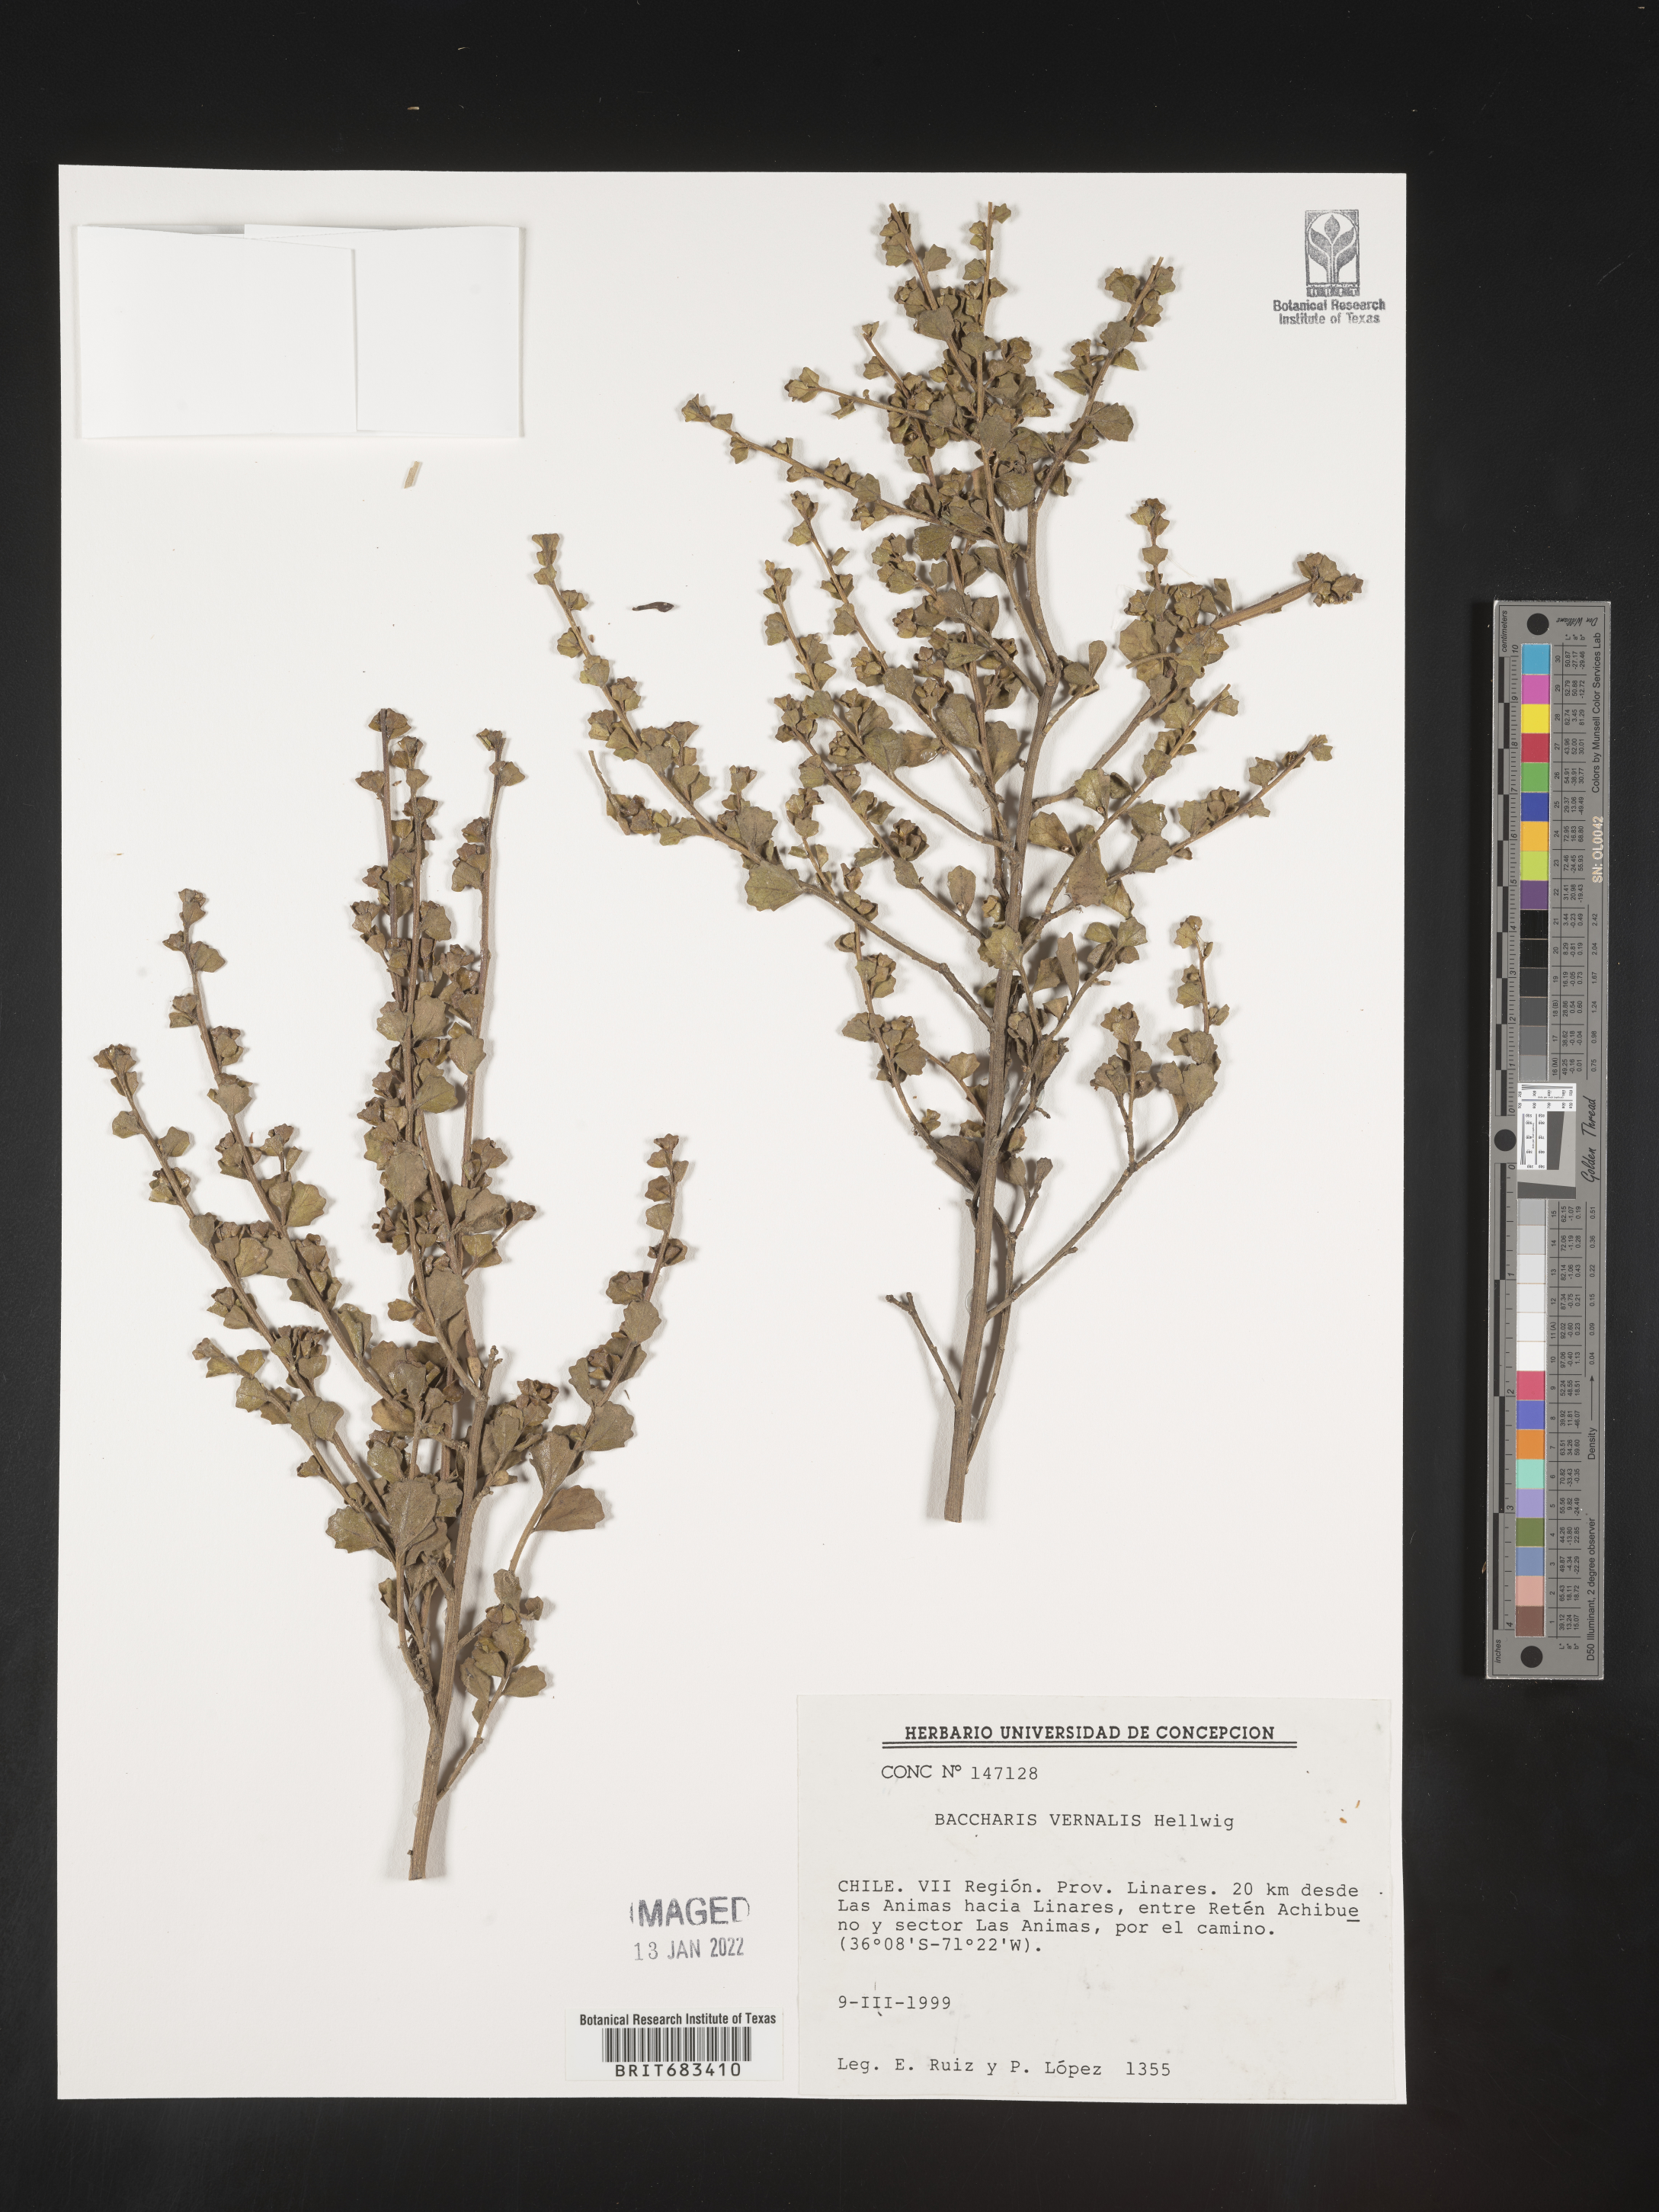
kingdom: Plantae
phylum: Tracheophyta
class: Magnoliopsida
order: Asterales
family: Asteraceae
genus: Baccharis
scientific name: Baccharis
